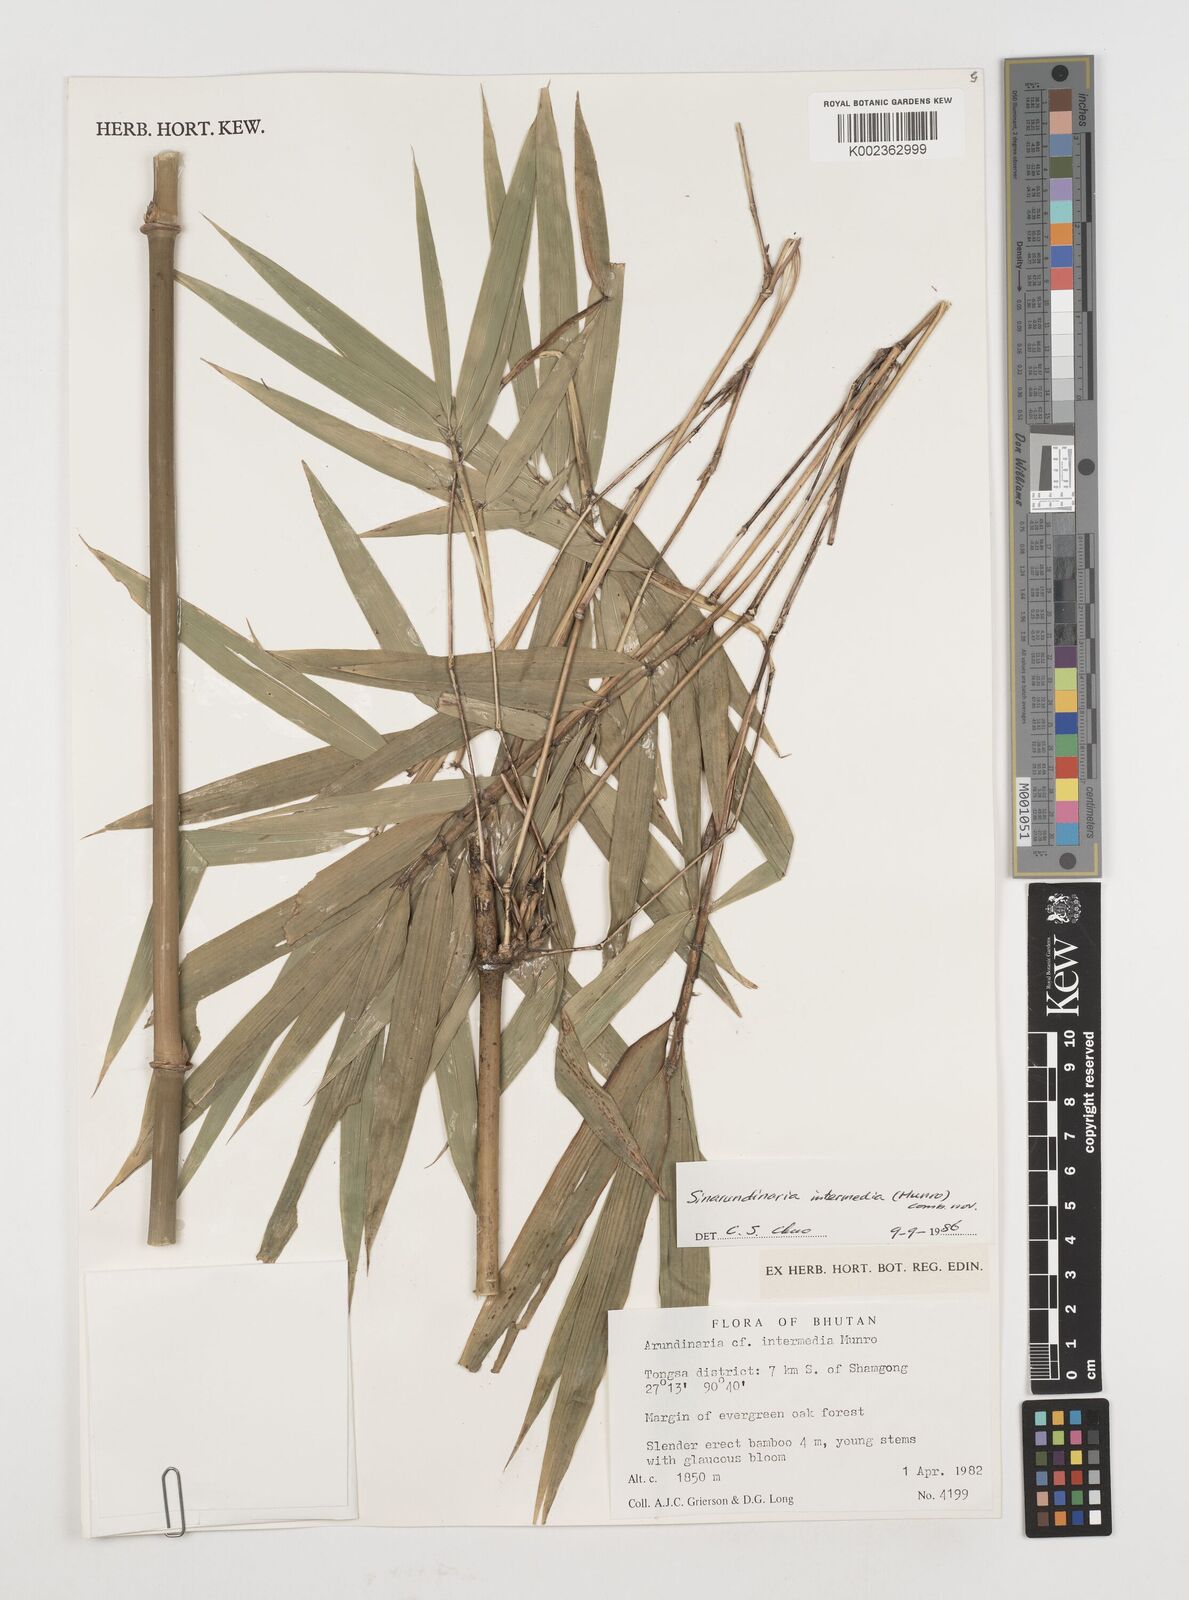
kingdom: Plantae
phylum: Tracheophyta
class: Liliopsida
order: Poales
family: Poaceae
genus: Drepanostachyum
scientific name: Drepanostachyum intermedium
